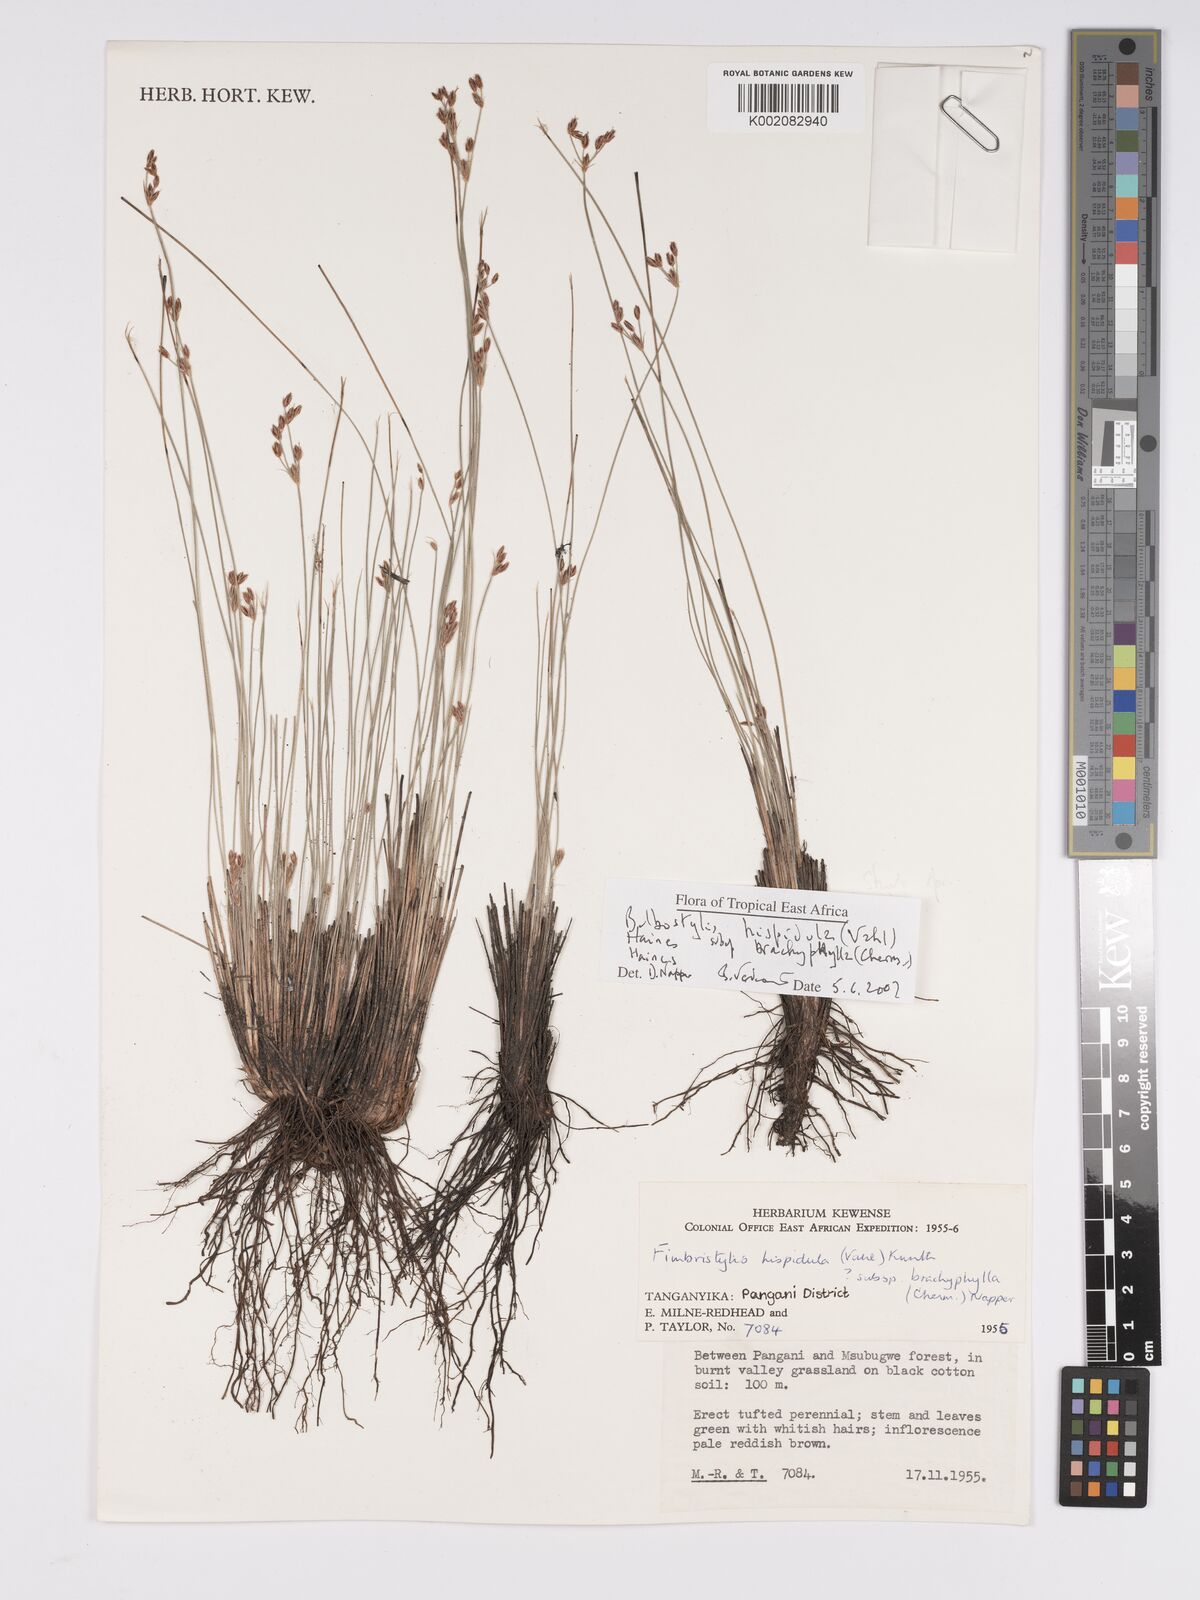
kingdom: Plantae
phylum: Tracheophyta
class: Liliopsida
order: Poales
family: Cyperaceae
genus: Bulbostylis
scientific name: Bulbostylis hispidula
